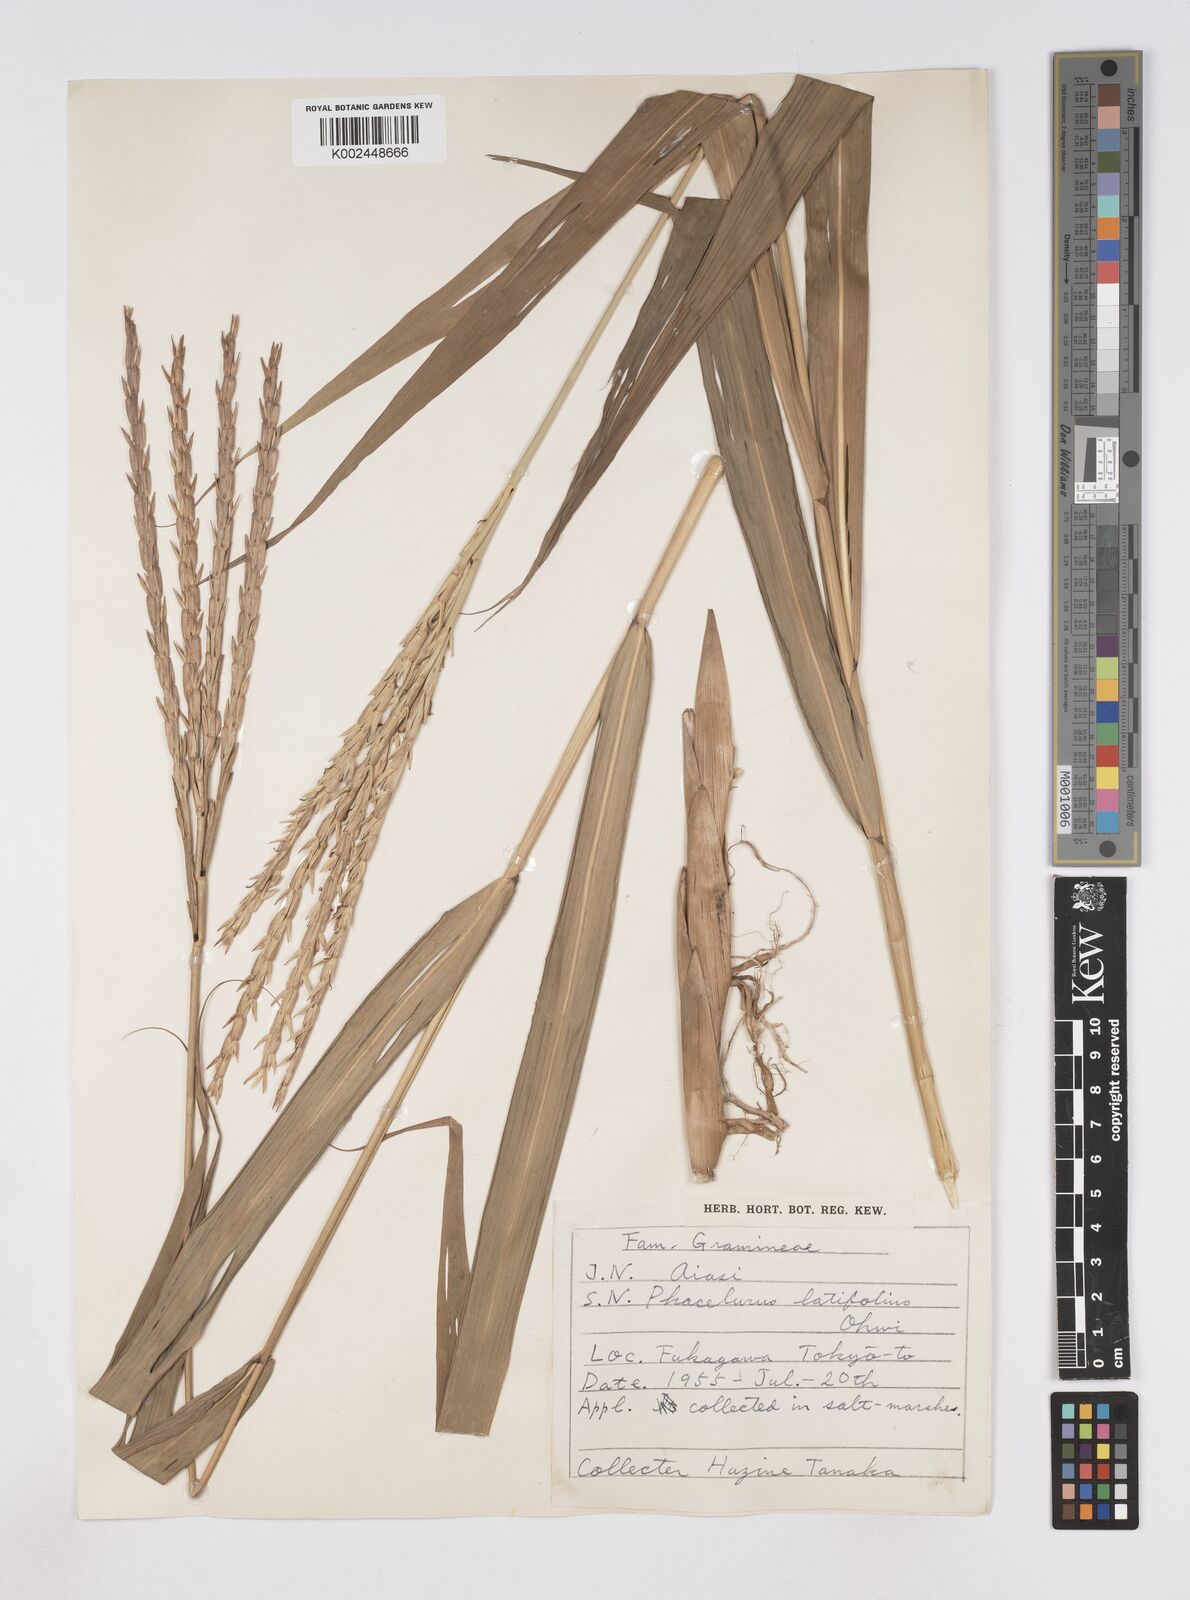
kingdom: Plantae
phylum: Tracheophyta
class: Liliopsida
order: Poales
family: Poaceae
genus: Phacelurus
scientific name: Phacelurus latifolius
